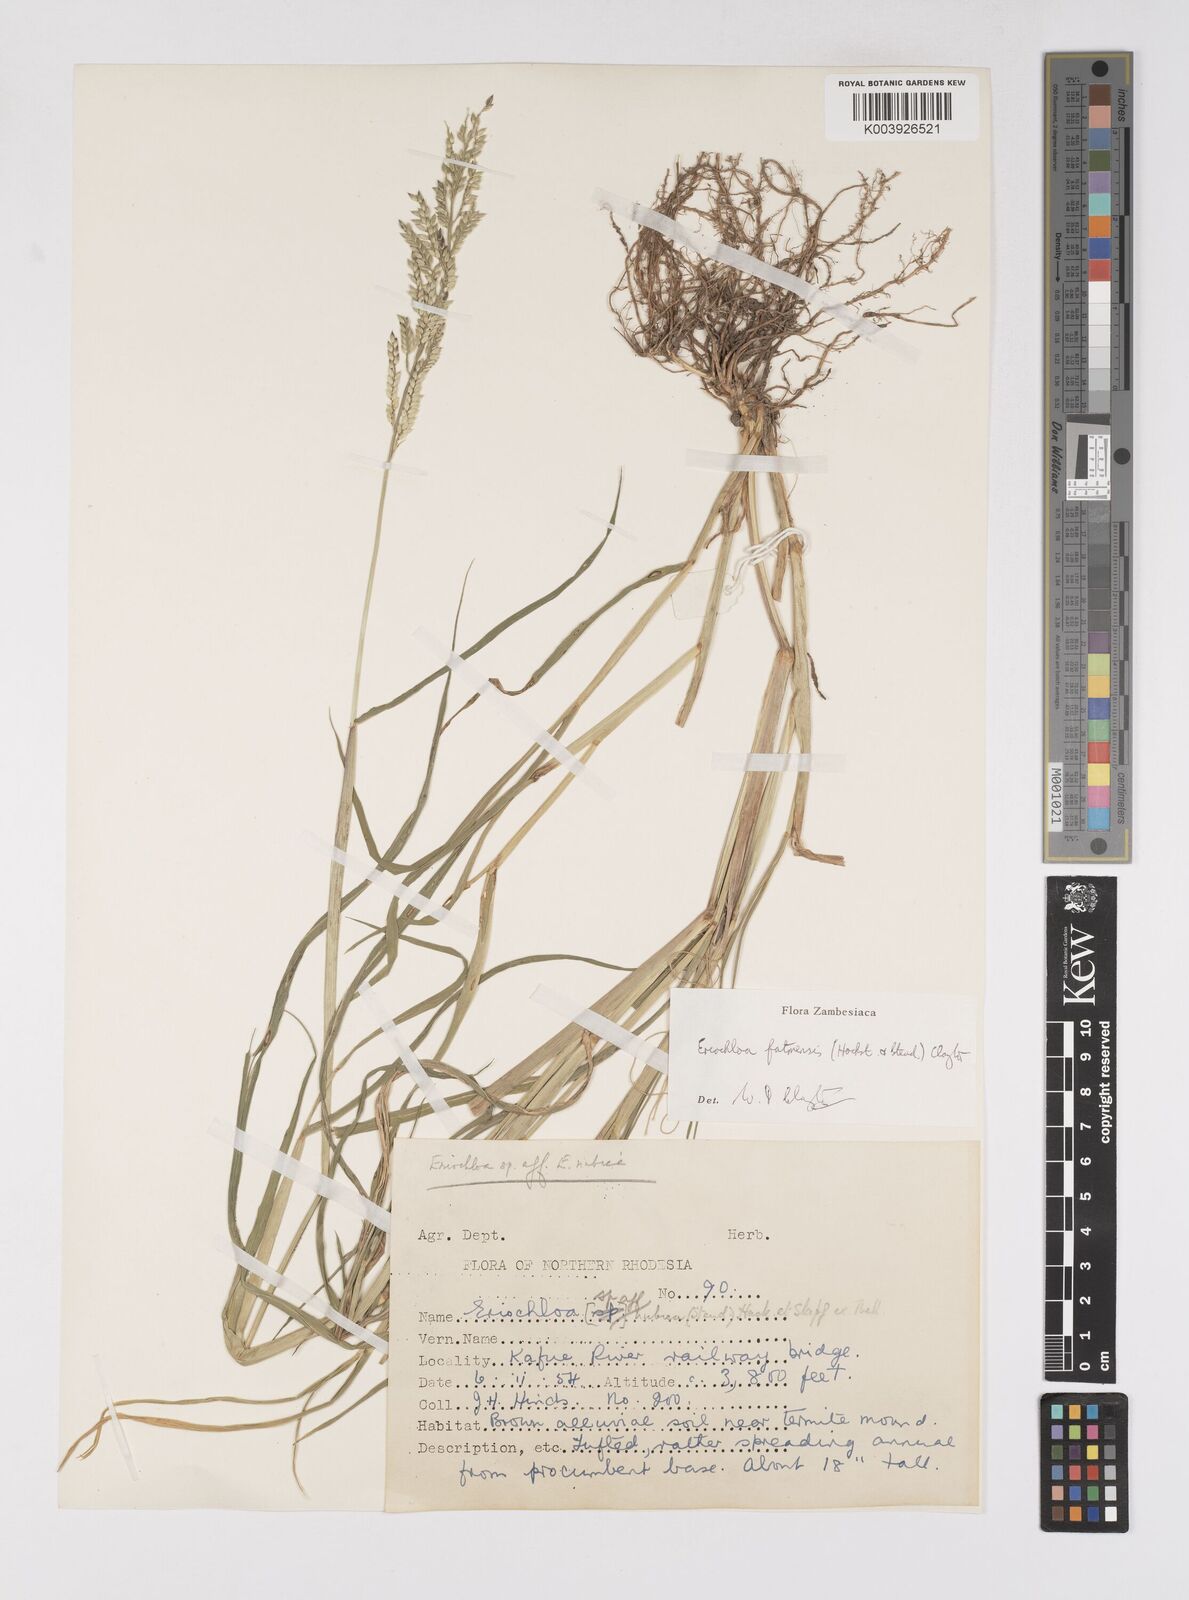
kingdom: Plantae
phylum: Tracheophyta
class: Liliopsida
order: Poales
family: Poaceae
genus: Eriochloa
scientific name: Eriochloa barbatus
